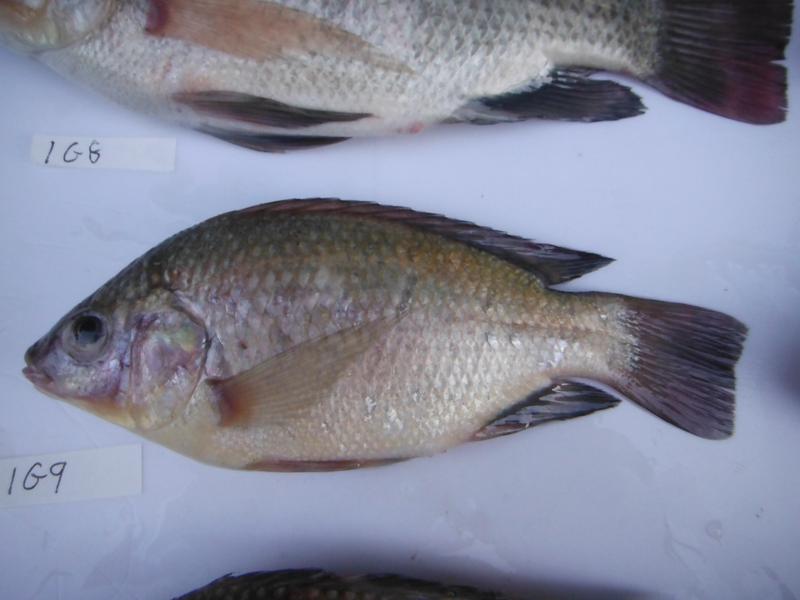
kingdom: Animalia
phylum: Chordata
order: Perciformes
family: Cichlidae
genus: Oreochromis
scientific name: Oreochromis rukwaensis
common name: Lake rukwa tilapia
